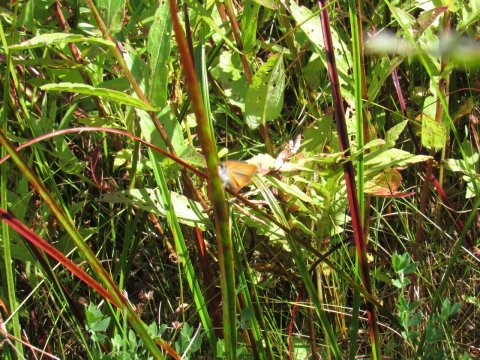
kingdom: Animalia
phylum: Arthropoda
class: Insecta
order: Lepidoptera
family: Hesperiidae
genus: Ancyloxypha
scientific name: Ancyloxypha numitor
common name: Least Skipper
